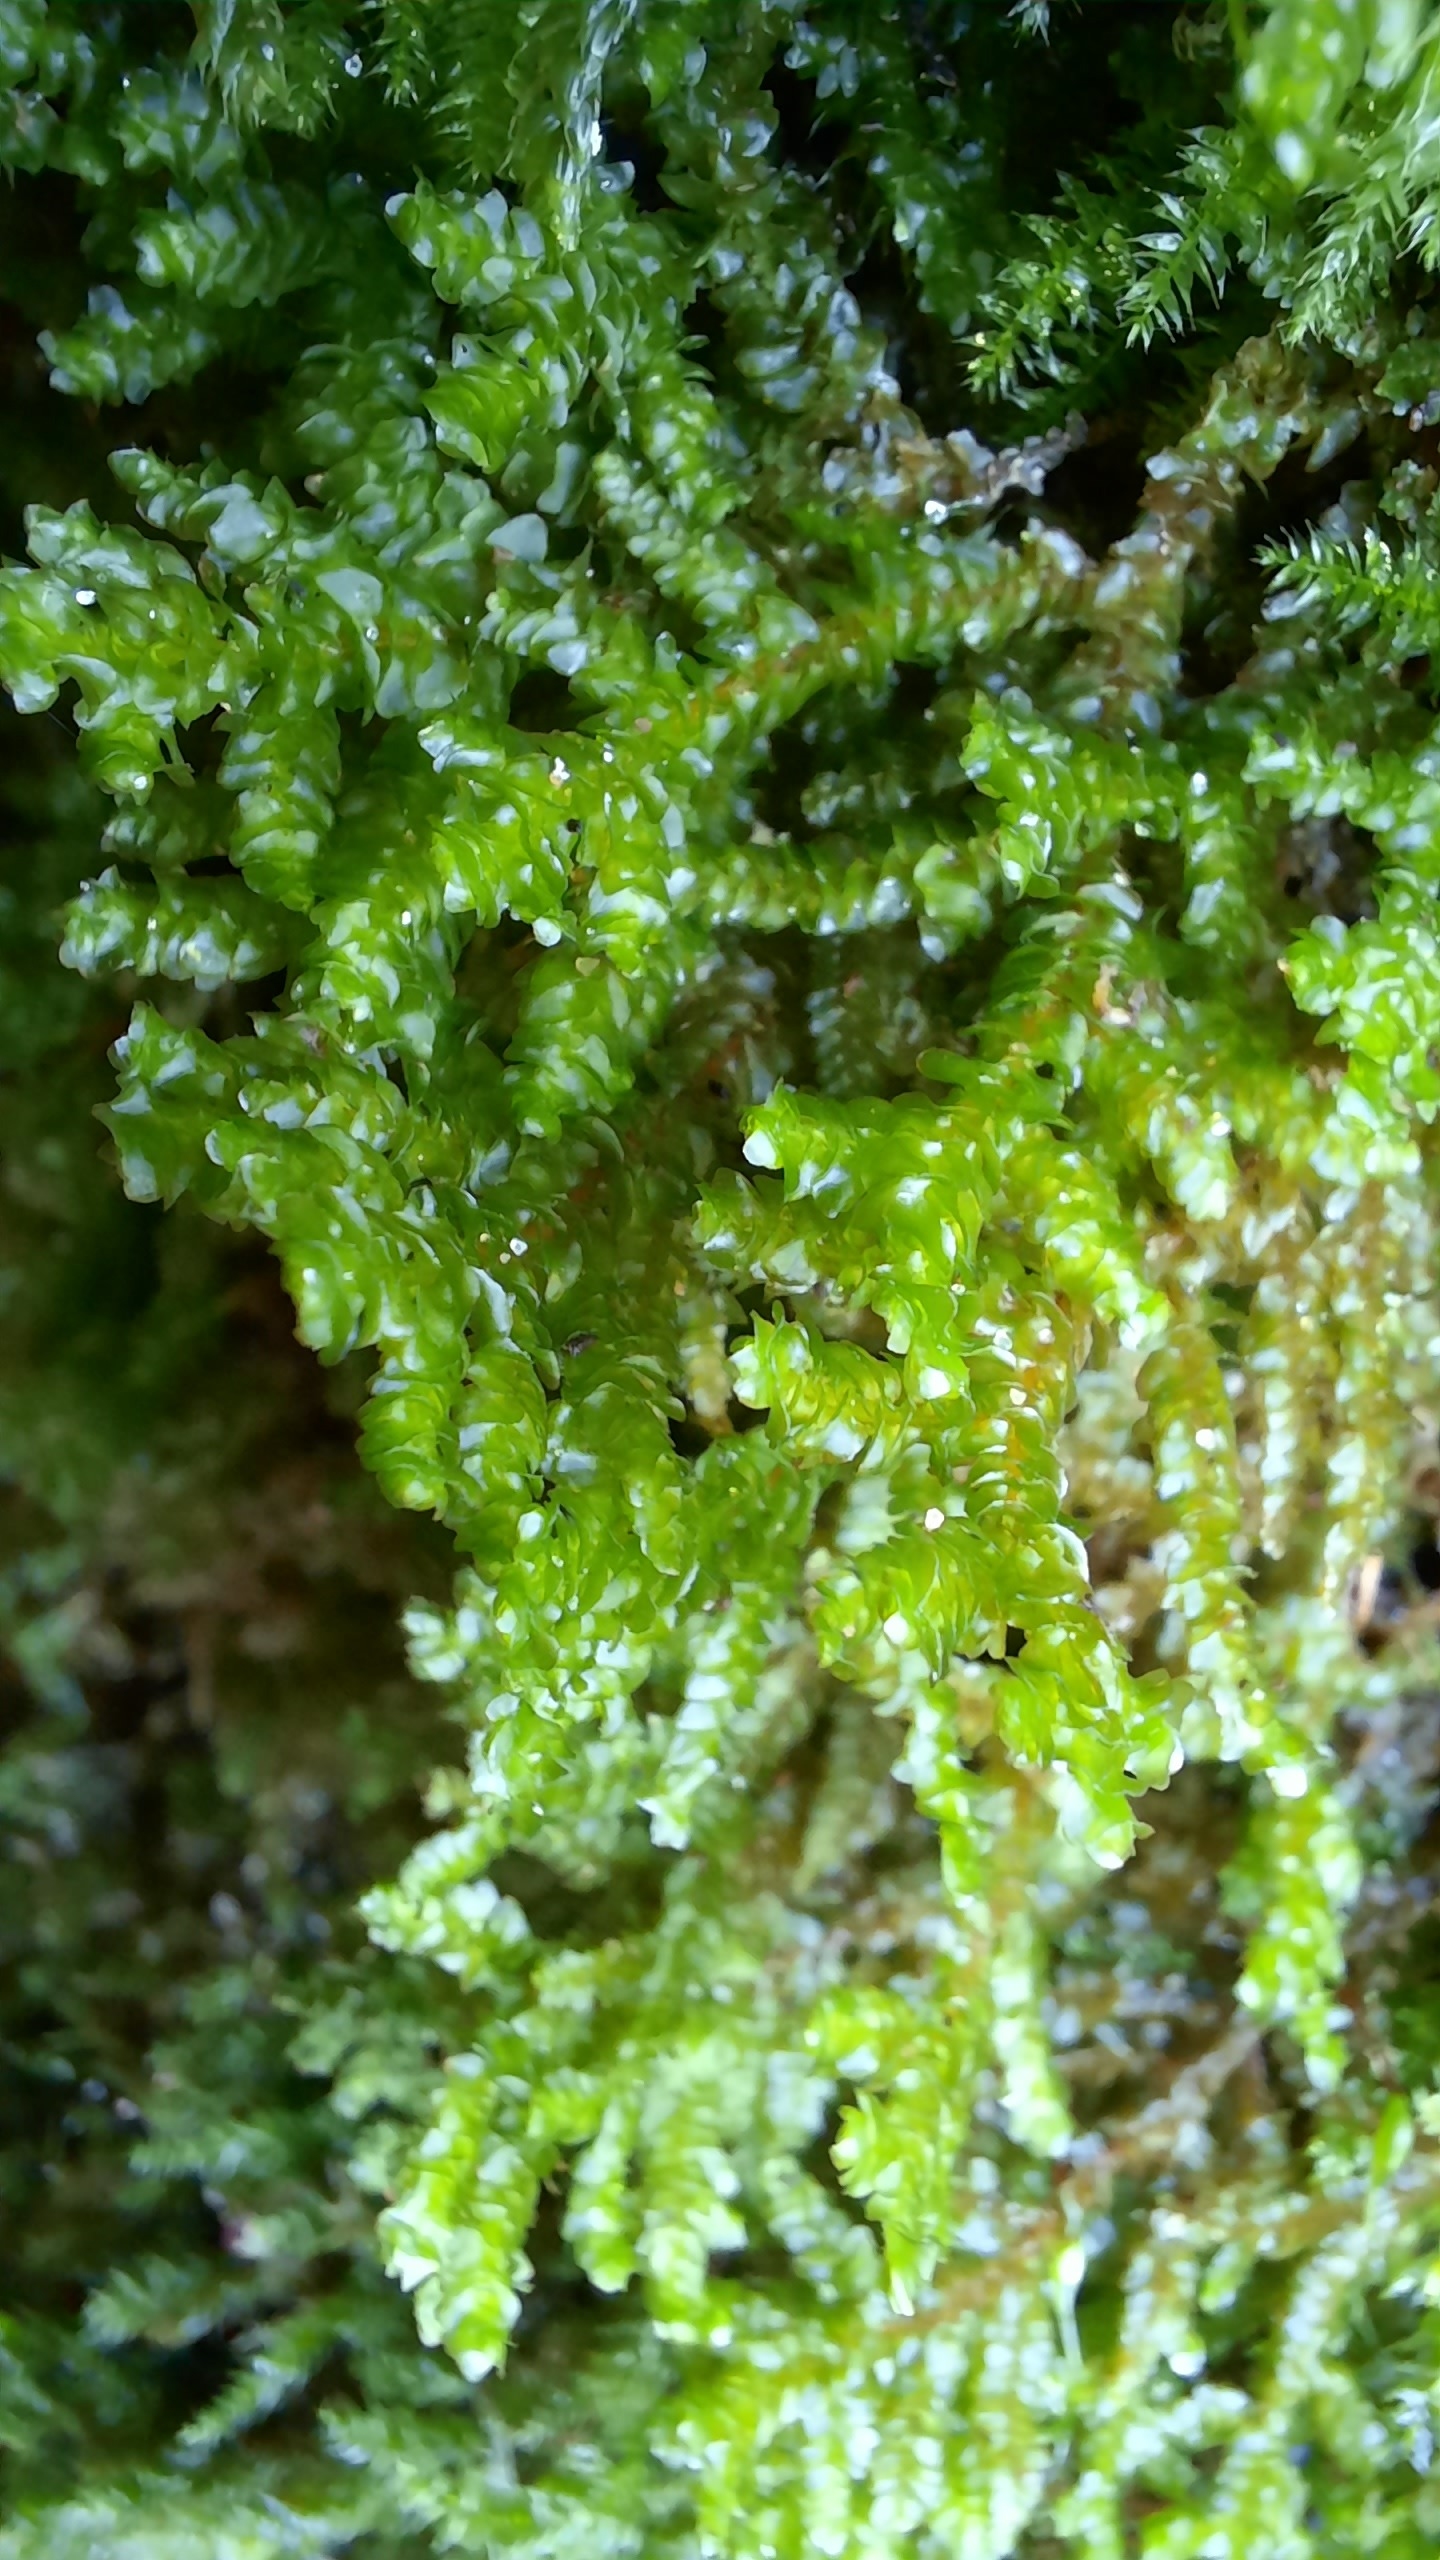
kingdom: Plantae
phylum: Marchantiophyta
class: Jungermanniopsida
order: Porellales
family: Porellaceae
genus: Porella
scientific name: Porella platyphylla
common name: Almindelig skælryg
